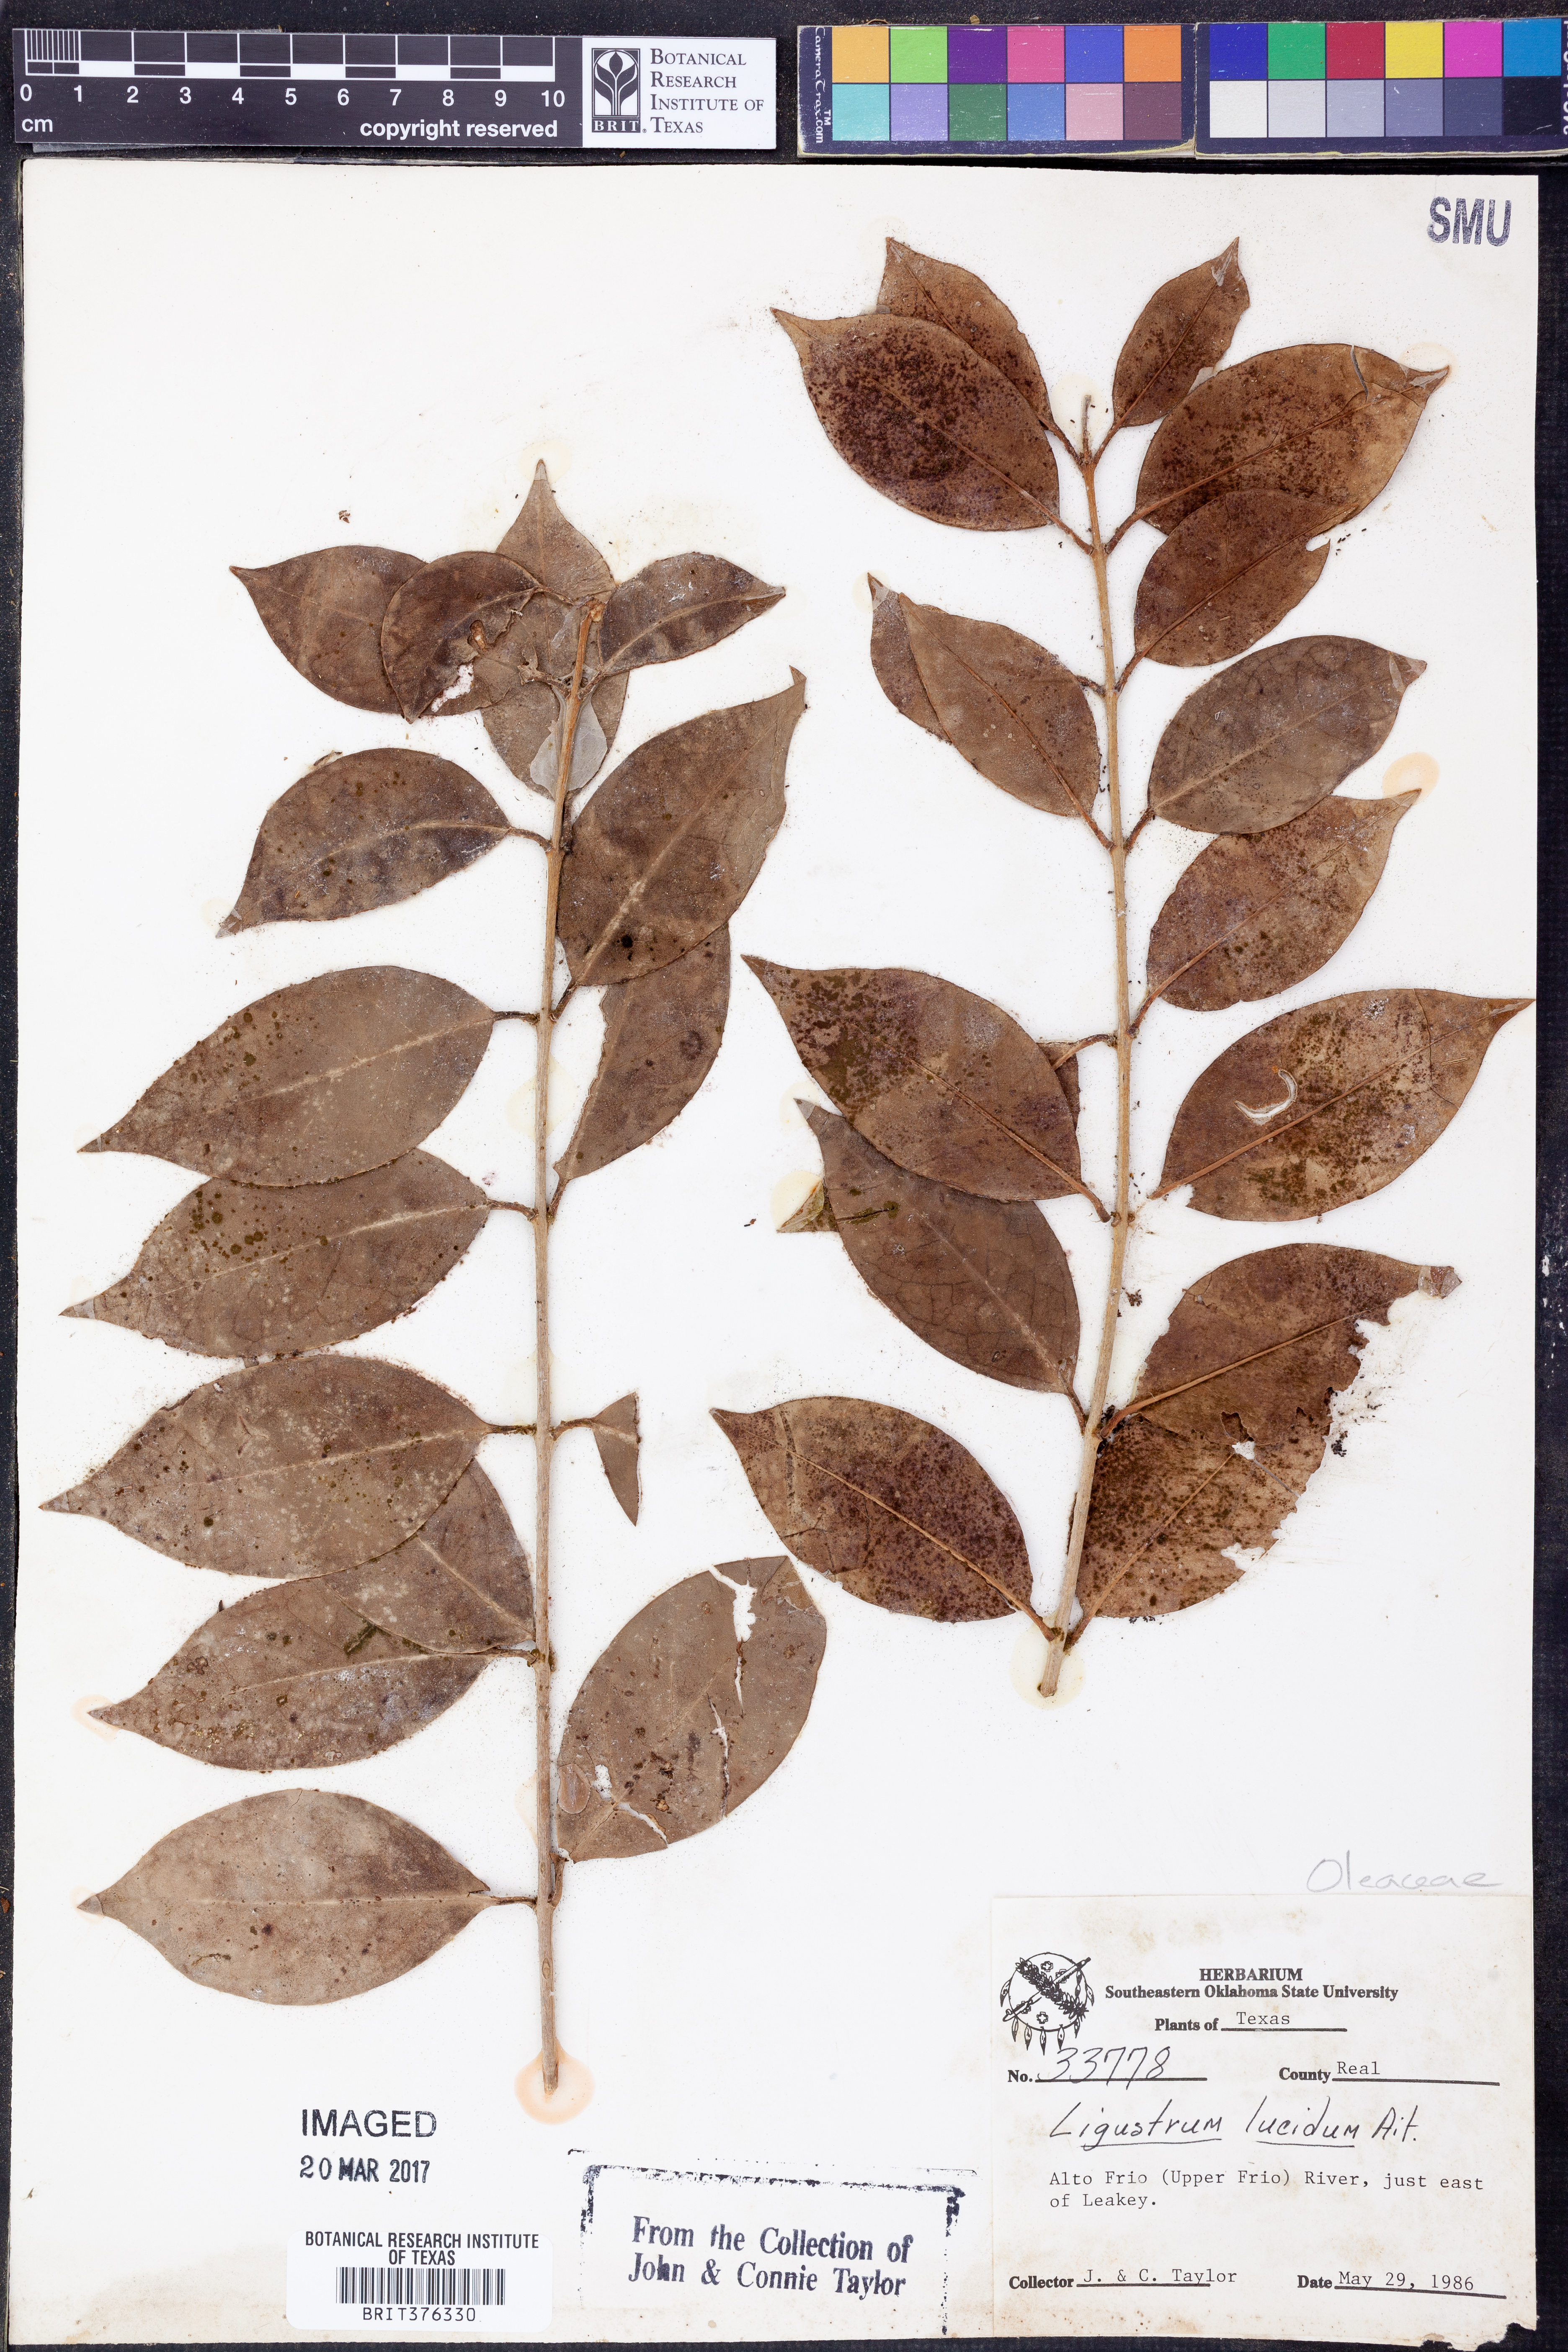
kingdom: Plantae
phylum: Tracheophyta
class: Magnoliopsida
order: Lamiales
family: Oleaceae
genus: Ligustrum
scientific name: Ligustrum lucidum
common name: Glossy privet
